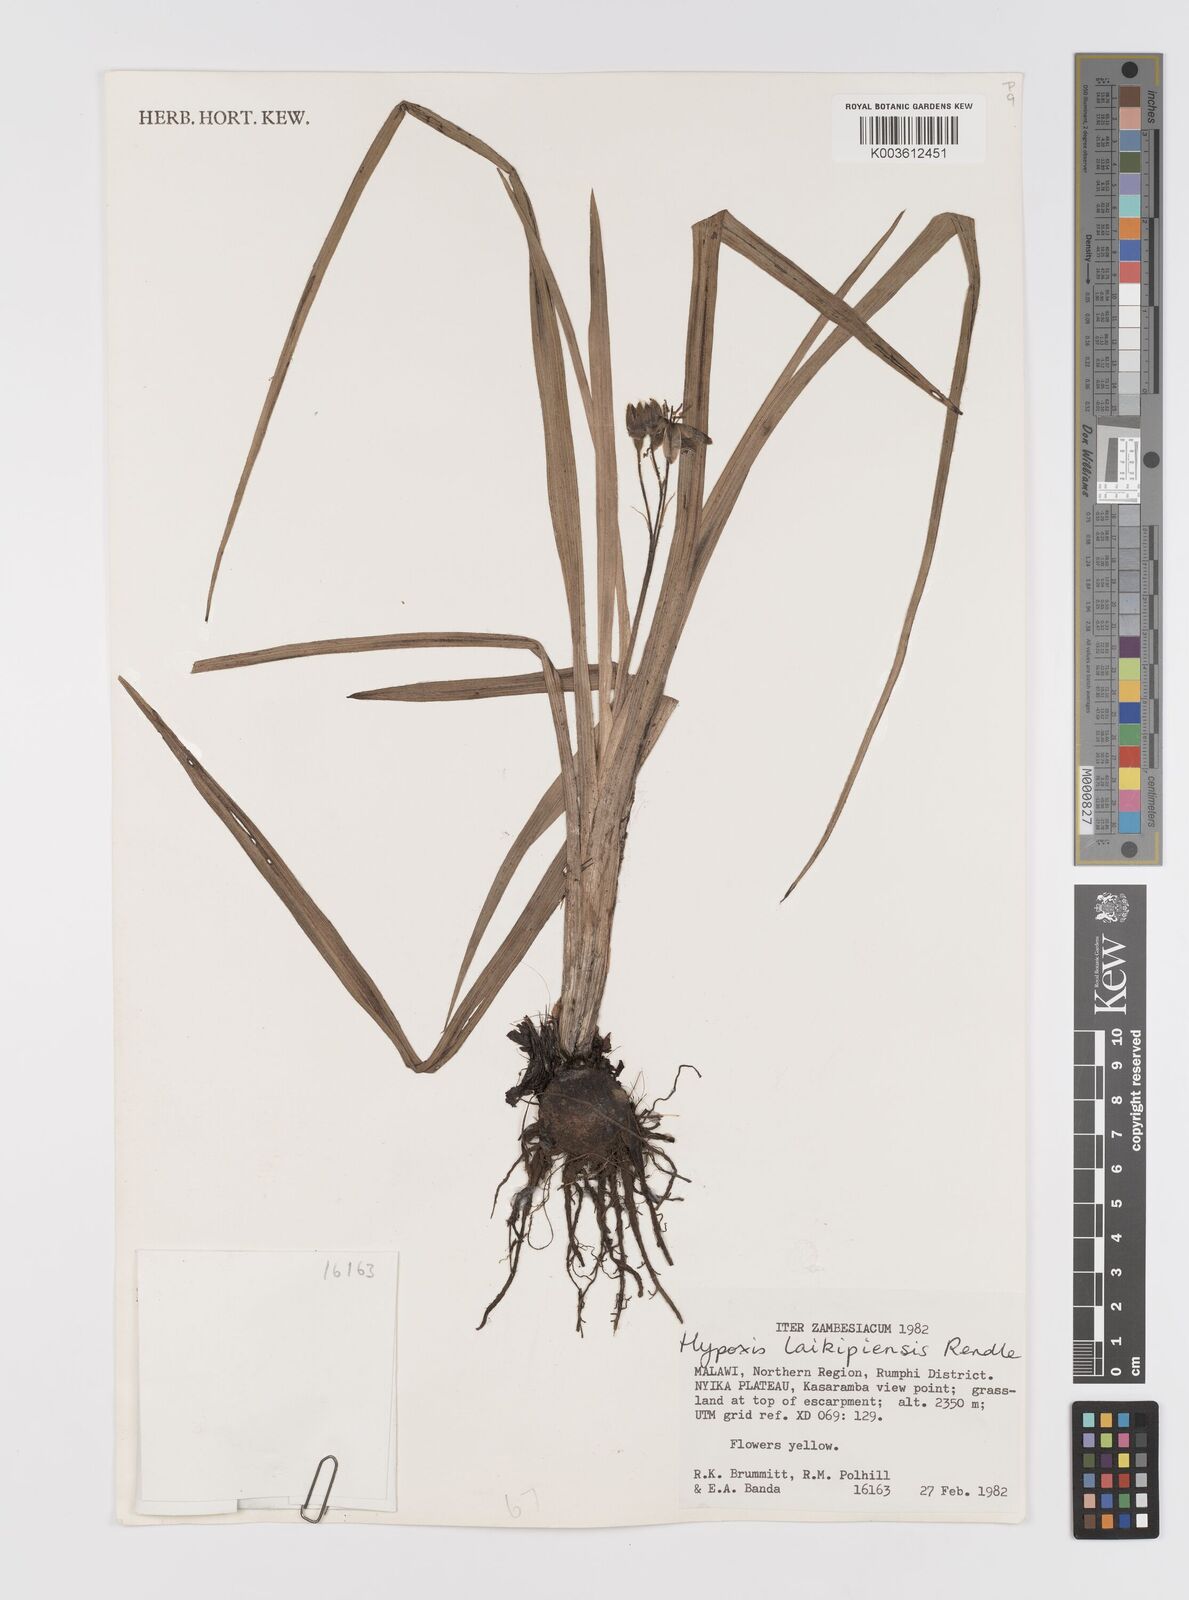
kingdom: Plantae
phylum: Tracheophyta
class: Liliopsida
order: Asparagales
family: Hypoxidaceae
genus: Hypoxis
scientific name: Hypoxis nyasica
